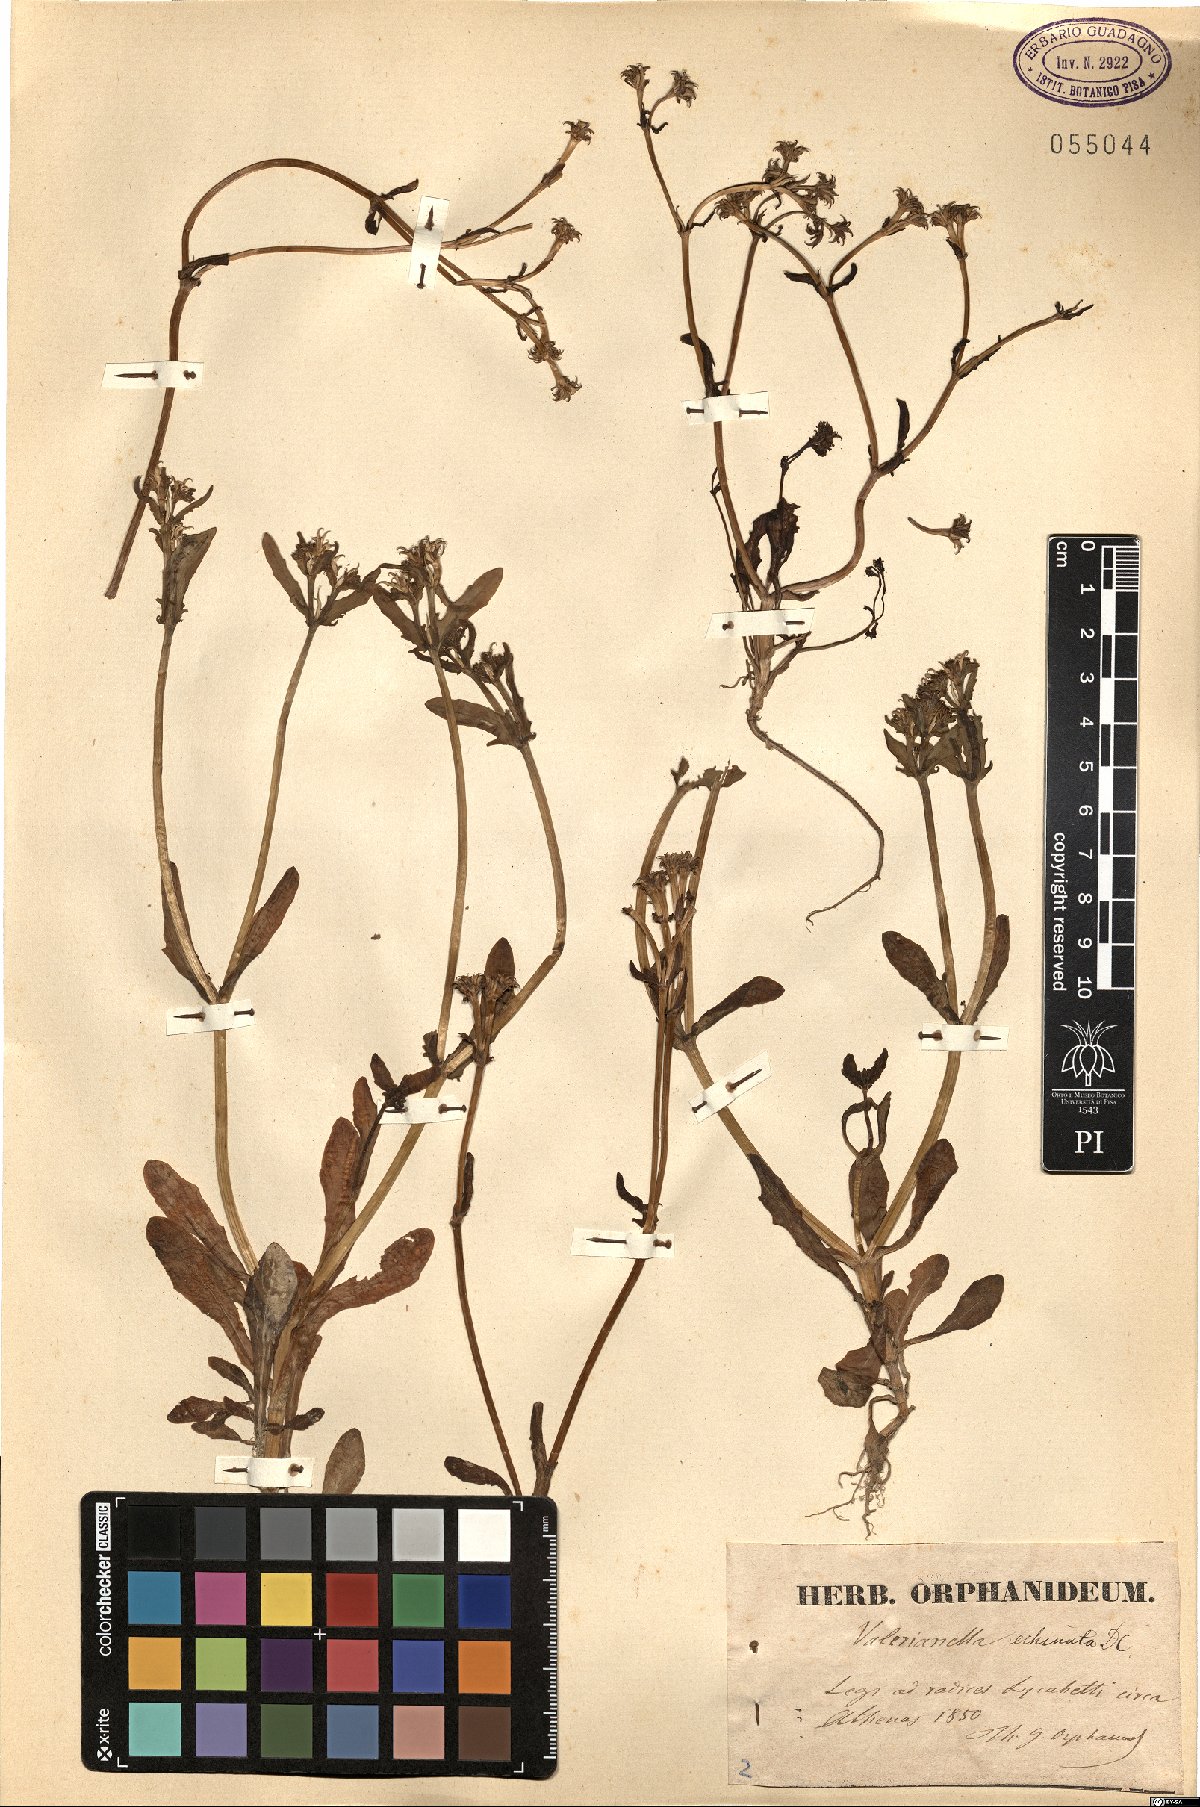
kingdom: Plantae
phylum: Tracheophyta
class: Magnoliopsida
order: Dipsacales
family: Caprifoliaceae
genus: Valerianella
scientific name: Valerianella echinata
